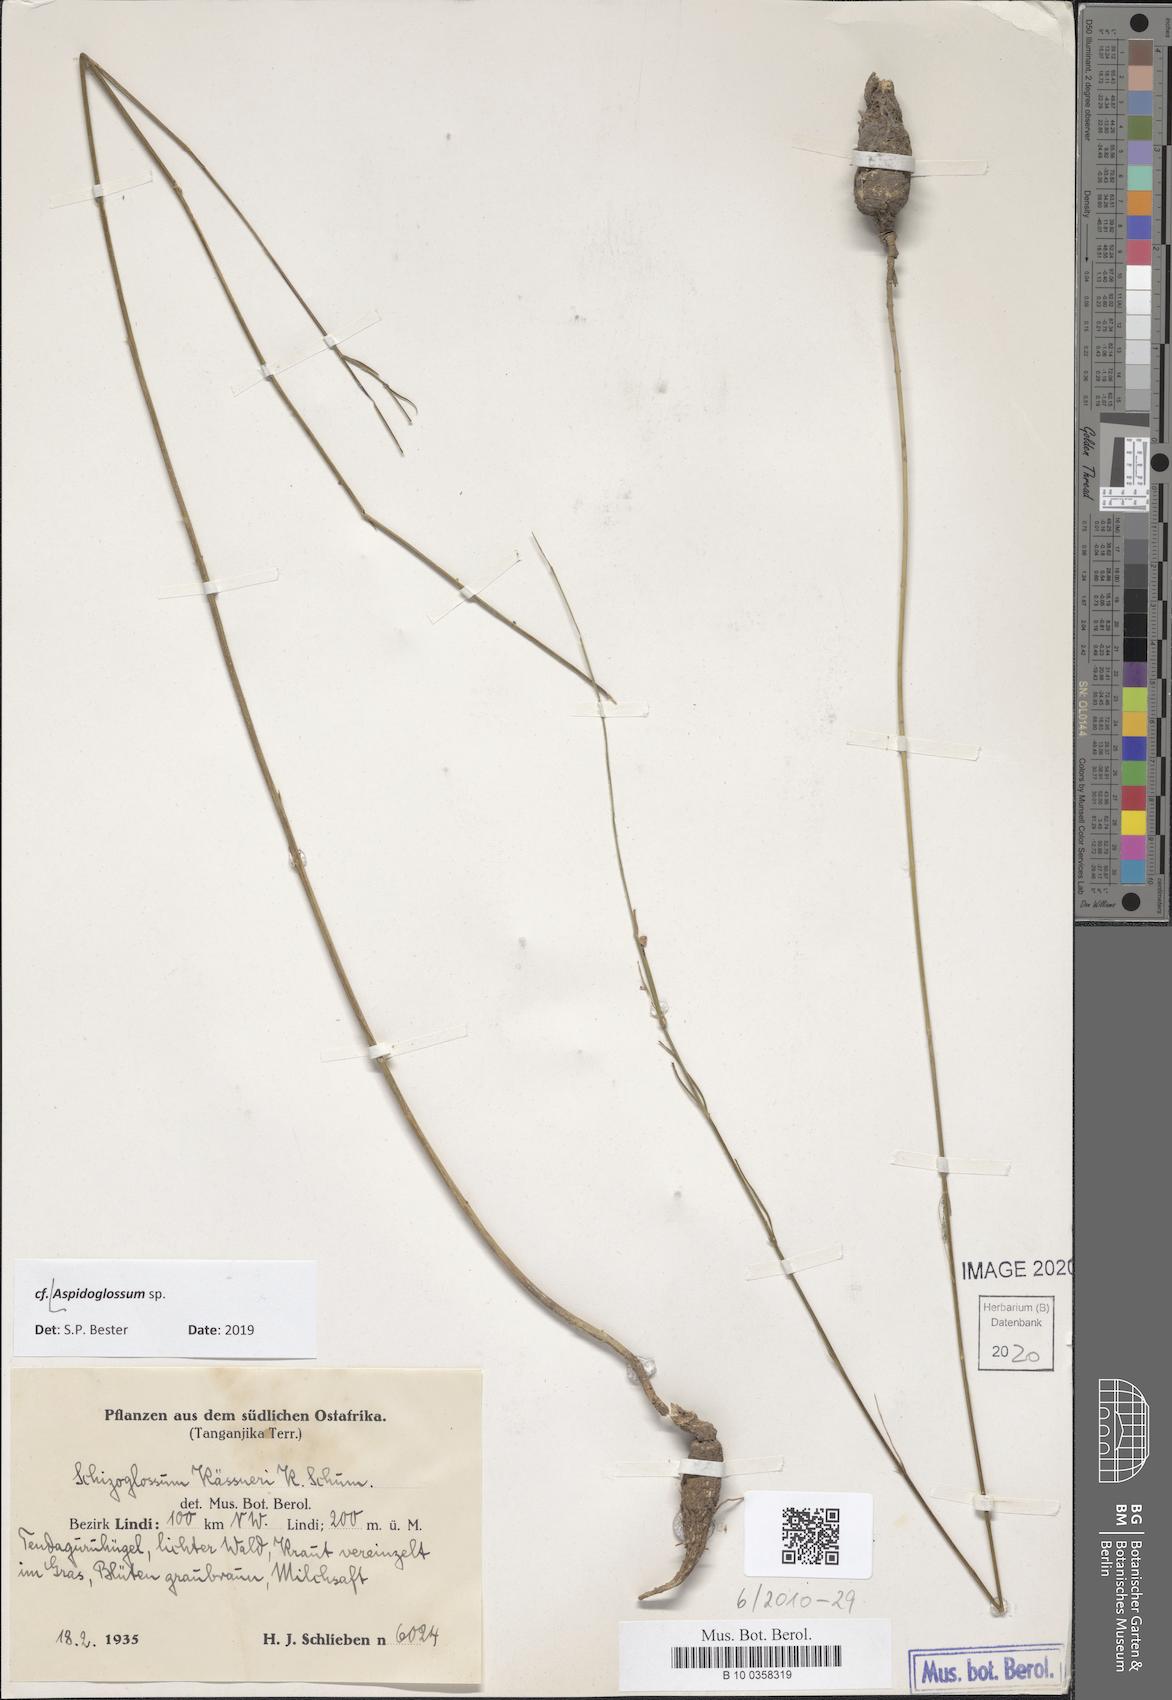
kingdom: Plantae
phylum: Tracheophyta
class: Magnoliopsida
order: Gentianales
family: Apocynaceae
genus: Aspidoglossum
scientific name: Aspidoglossum
